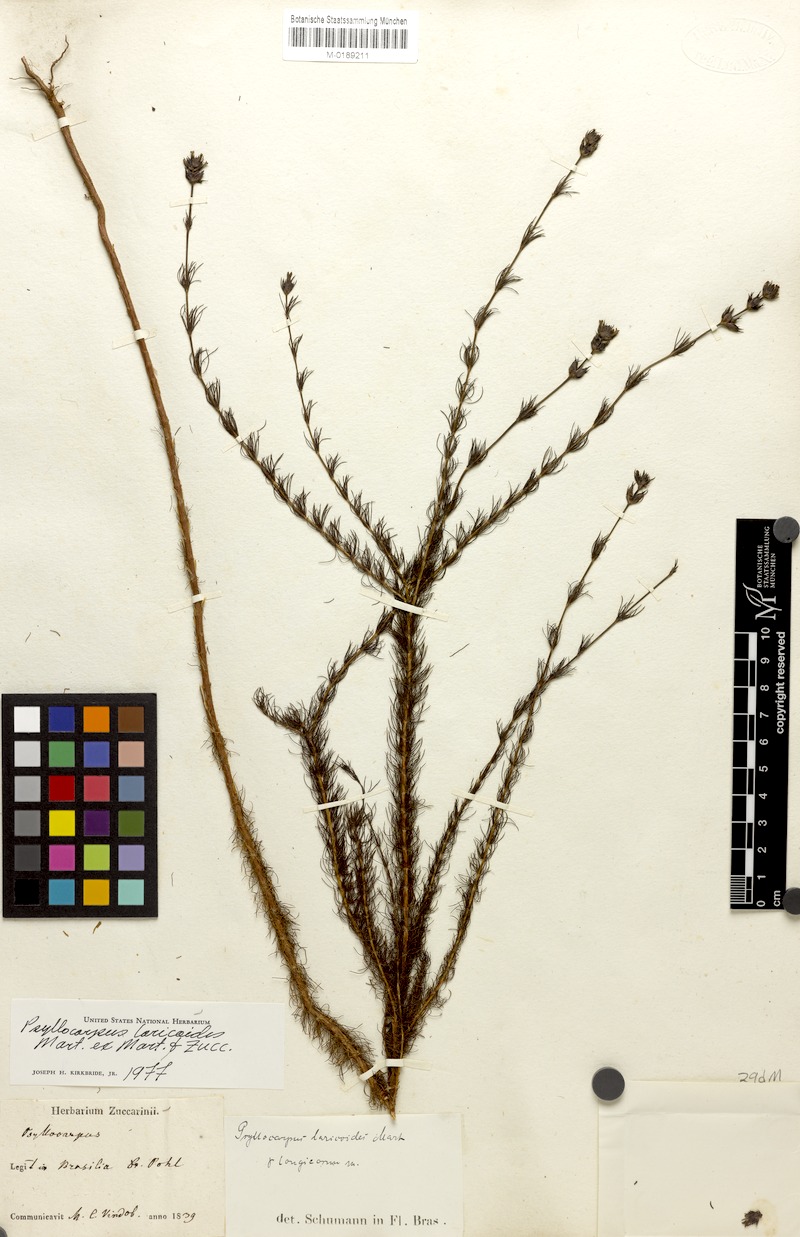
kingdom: Plantae
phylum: Tracheophyta
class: Magnoliopsida
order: Gentianales
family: Rubiaceae
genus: Psyllocarpus
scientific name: Psyllocarpus laricoides
